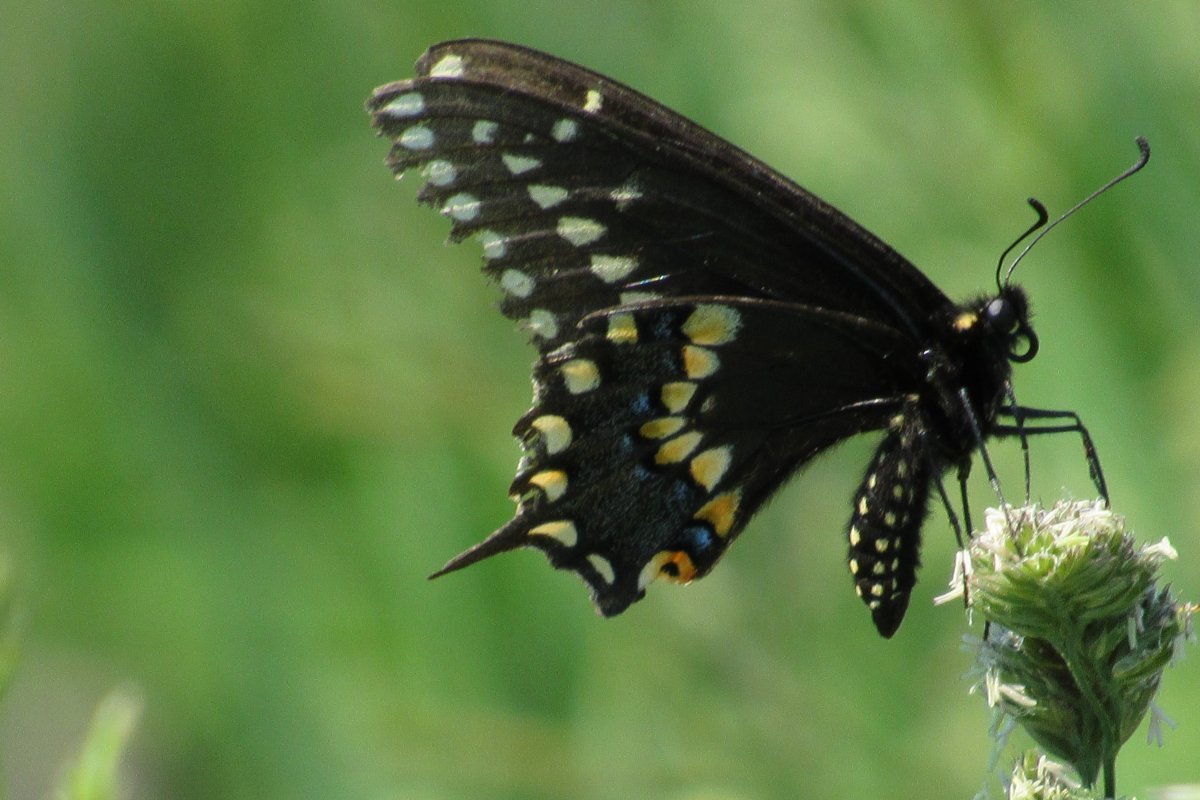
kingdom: Animalia
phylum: Arthropoda
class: Insecta
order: Lepidoptera
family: Papilionidae
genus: Papilio
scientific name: Papilio polyxenes
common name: Black Swallowtail
